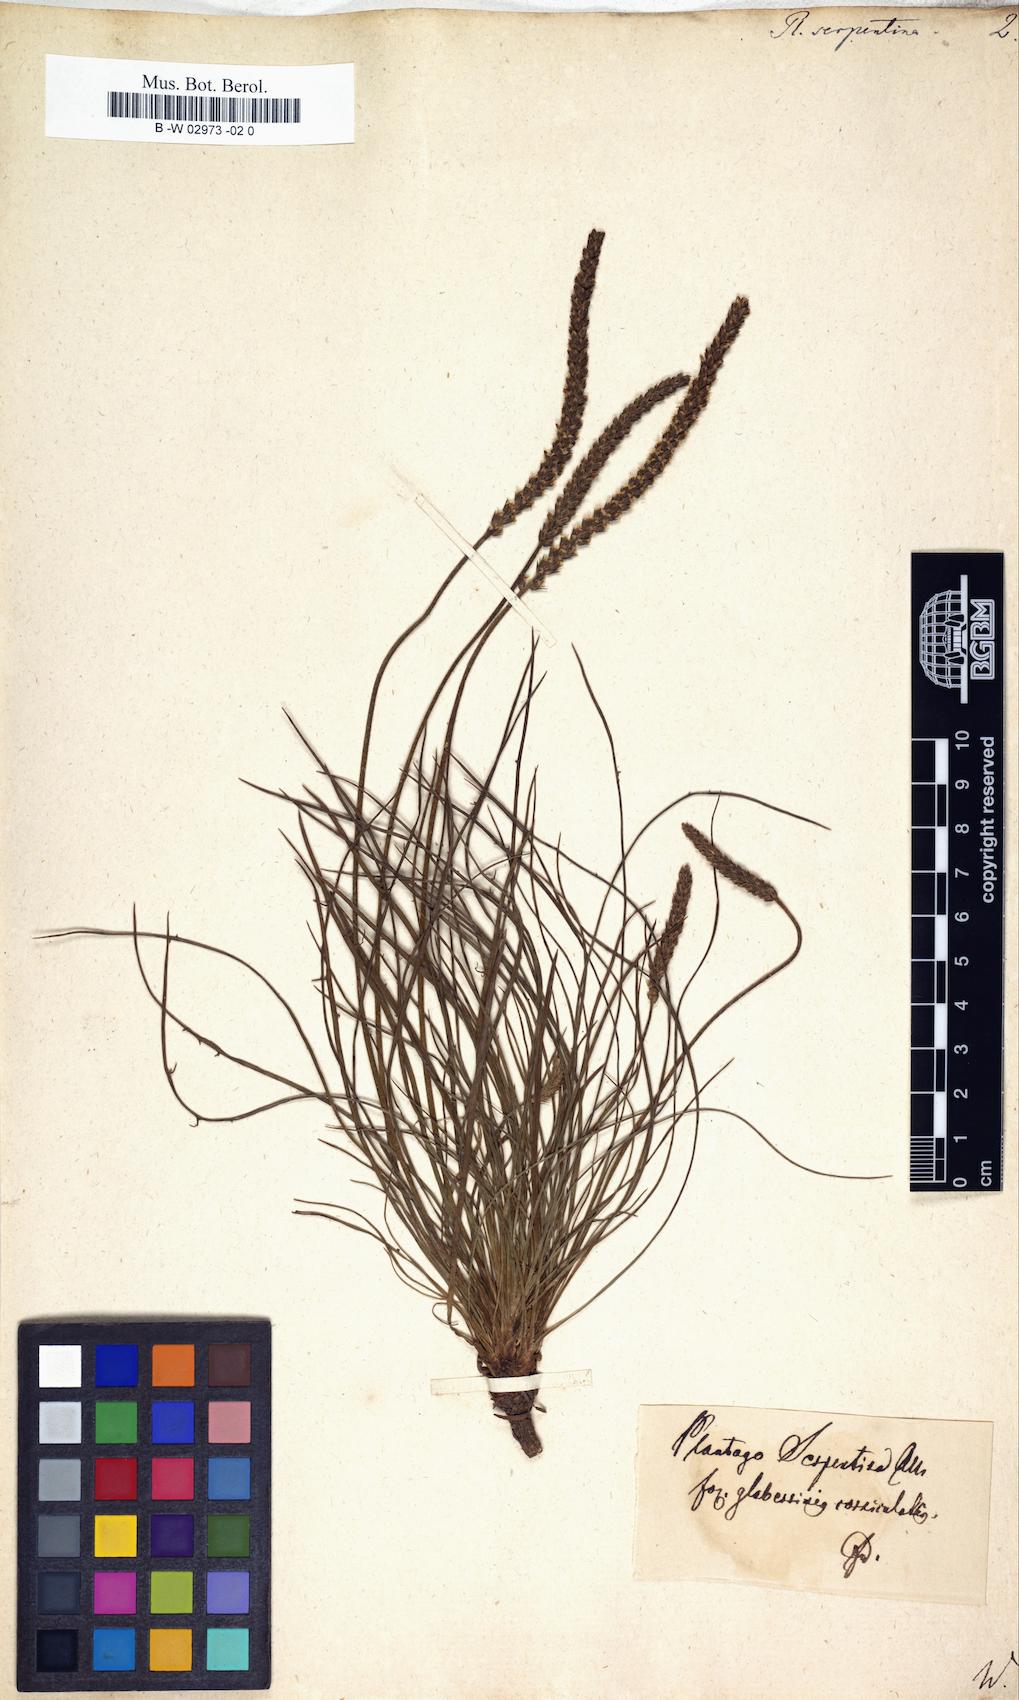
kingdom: Plantae
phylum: Tracheophyta
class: Magnoliopsida
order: Lamiales
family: Plantaginaceae
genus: Plantago
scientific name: Plantago strictissima
